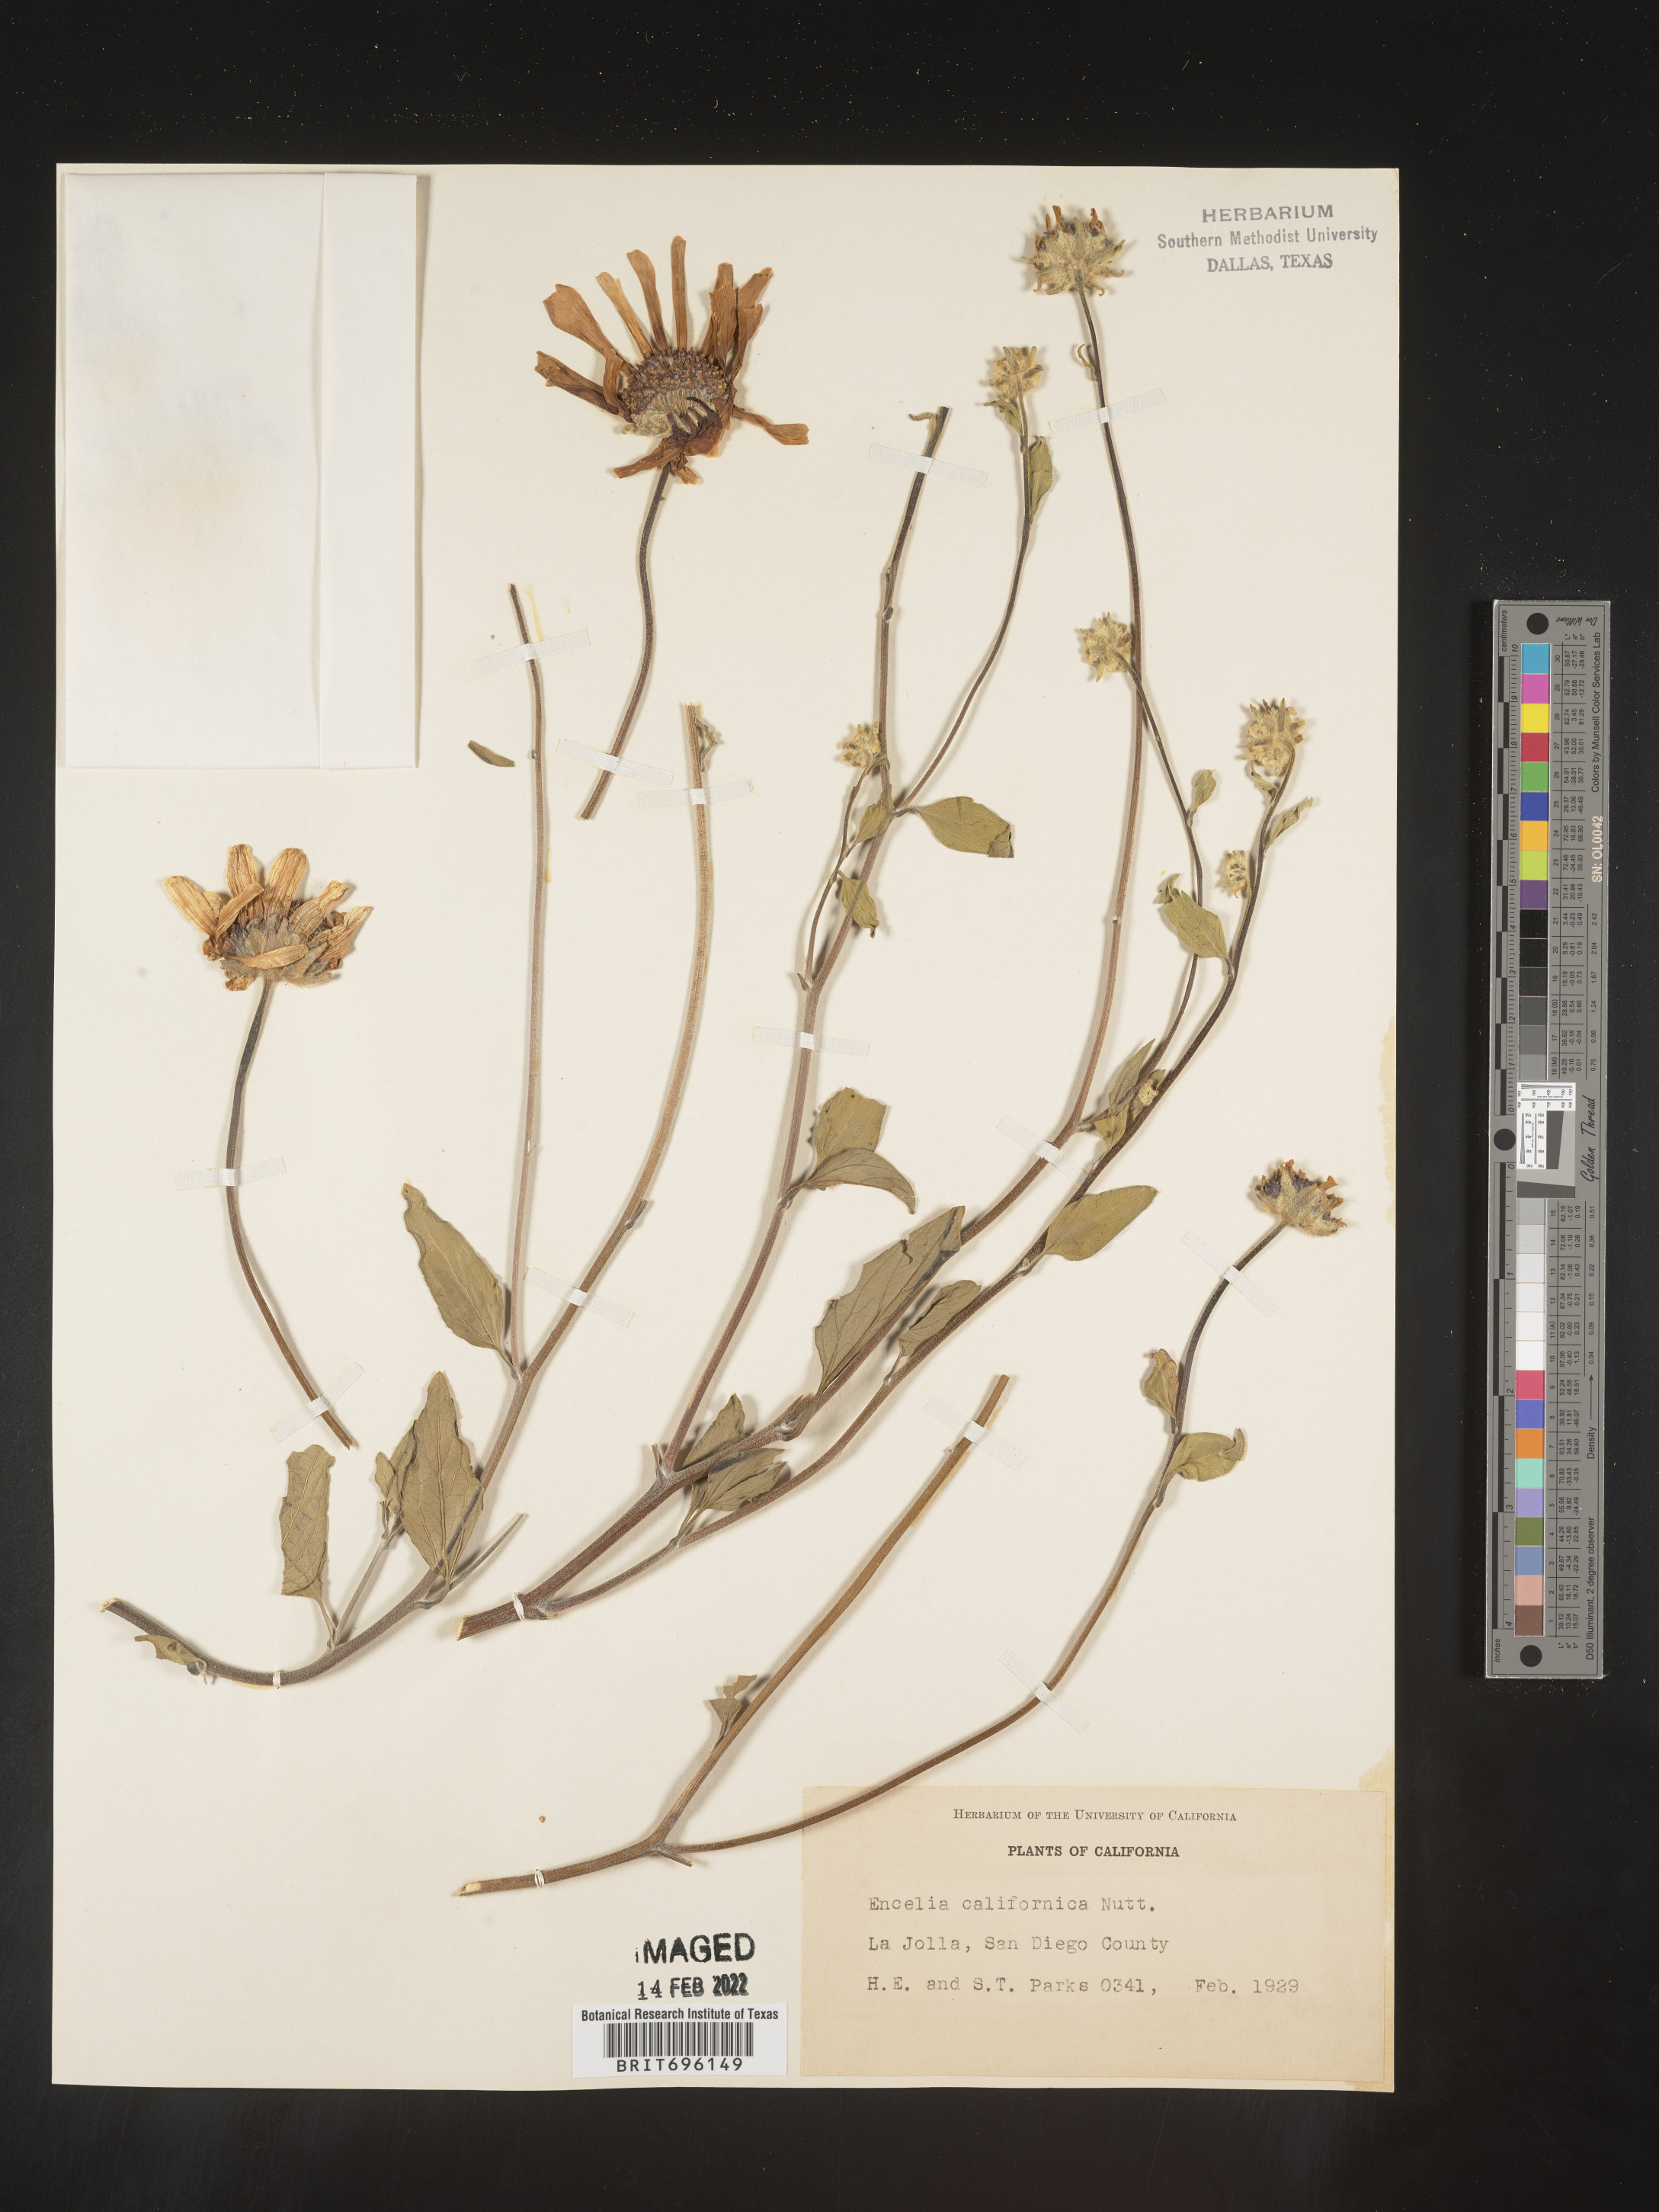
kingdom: Plantae
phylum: Tracheophyta
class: Magnoliopsida
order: Asterales
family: Asteraceae
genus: Encelia
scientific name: Encelia californica
